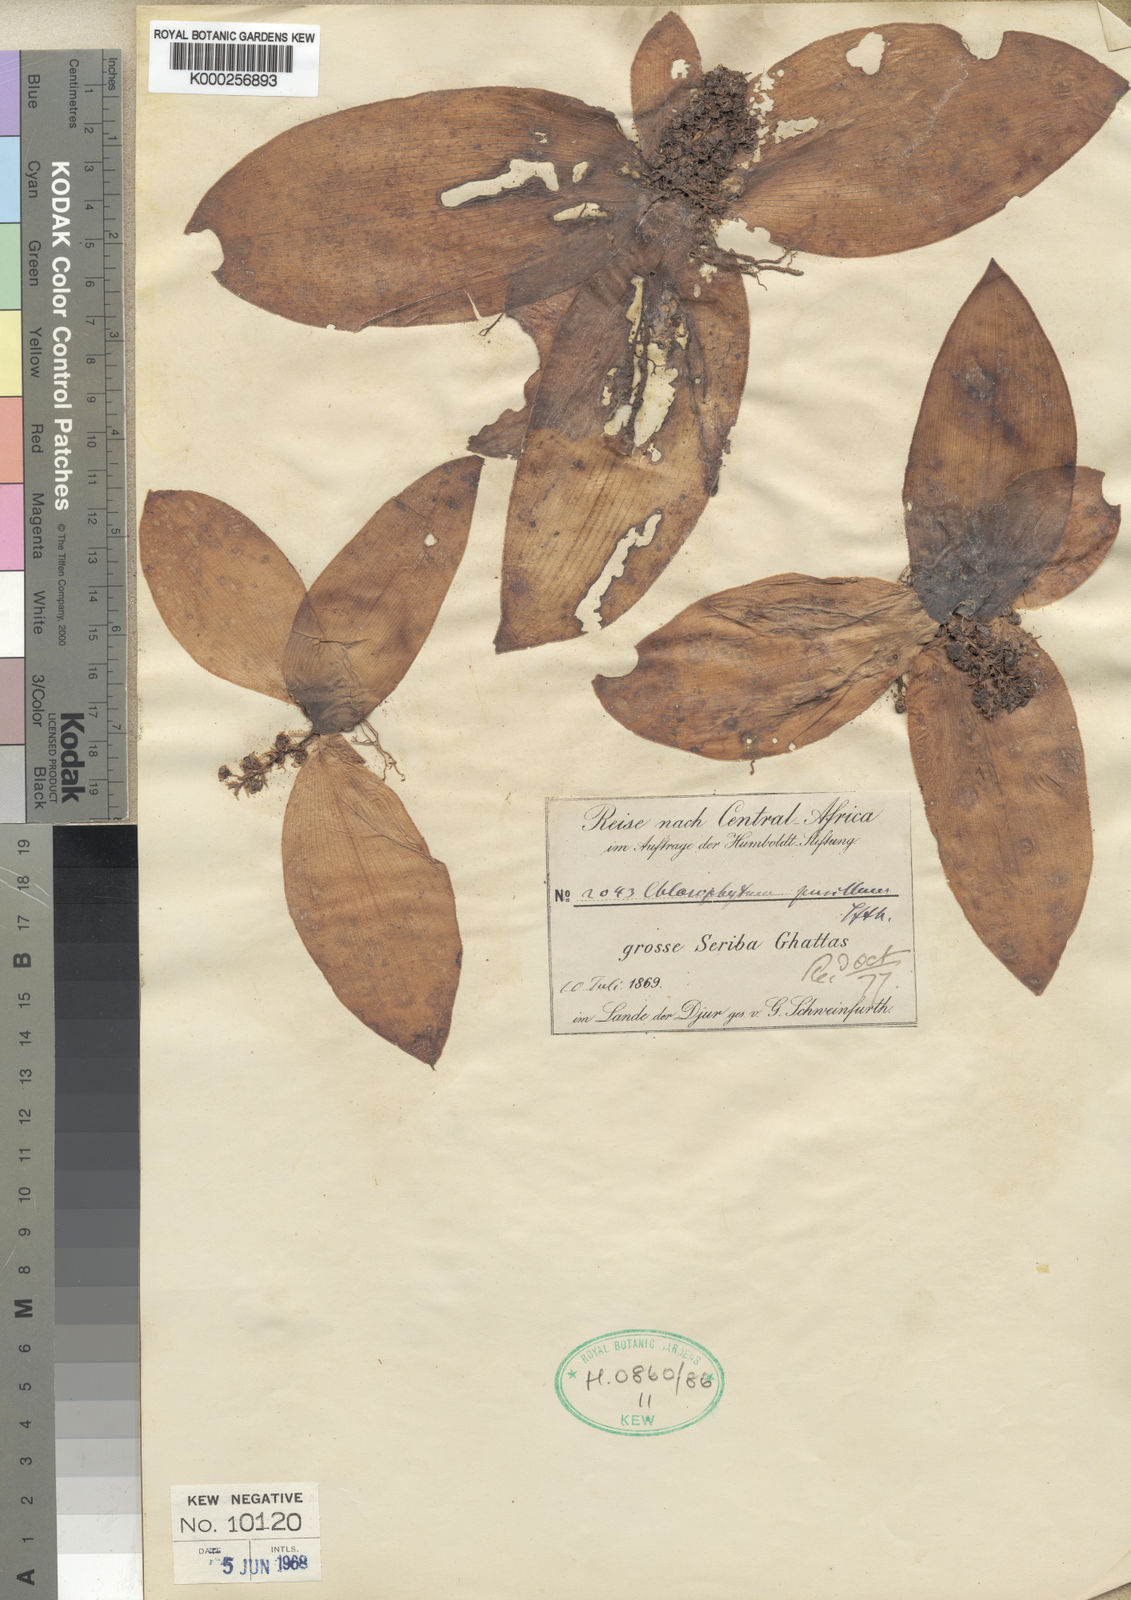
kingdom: Plantae
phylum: Tracheophyta
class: Liliopsida
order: Asparagales
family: Asparagaceae
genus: Chlorophytum
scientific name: Chlorophytum pusillum
